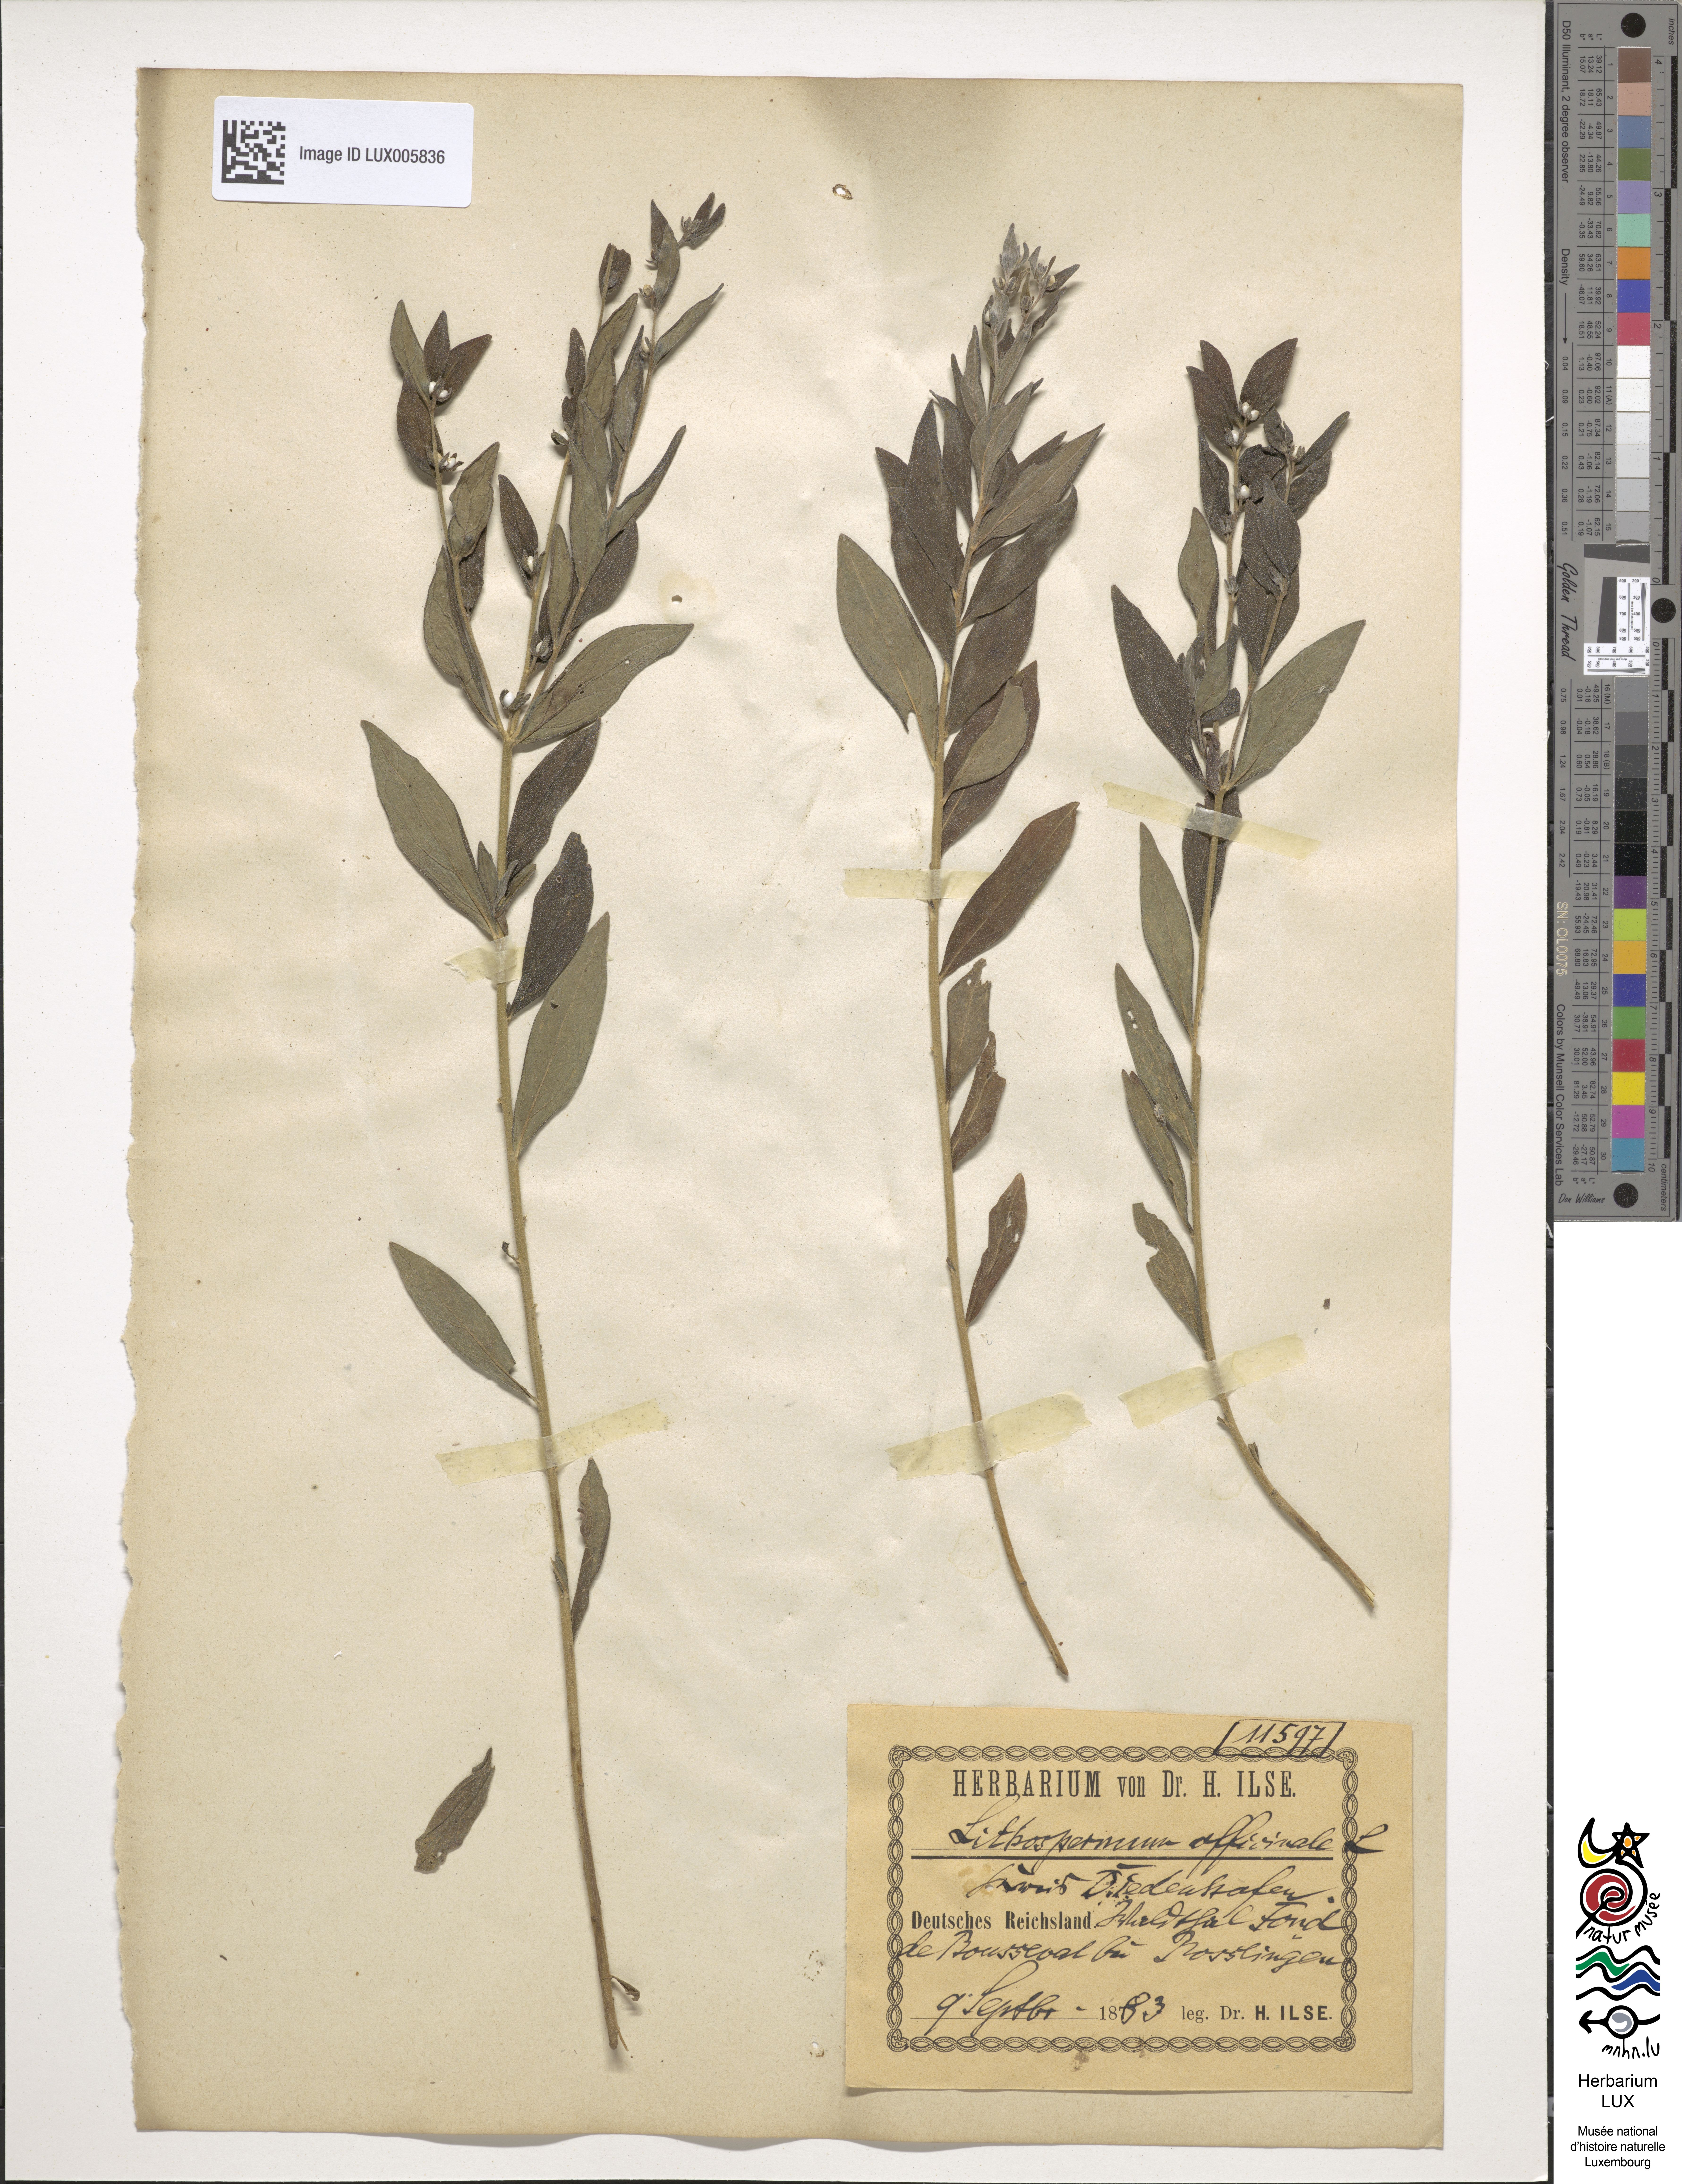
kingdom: Plantae
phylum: Tracheophyta
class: Magnoliopsida
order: Boraginales
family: Boraginaceae
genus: Lithospermum
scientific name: Lithospermum officinale
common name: Common gromwell
